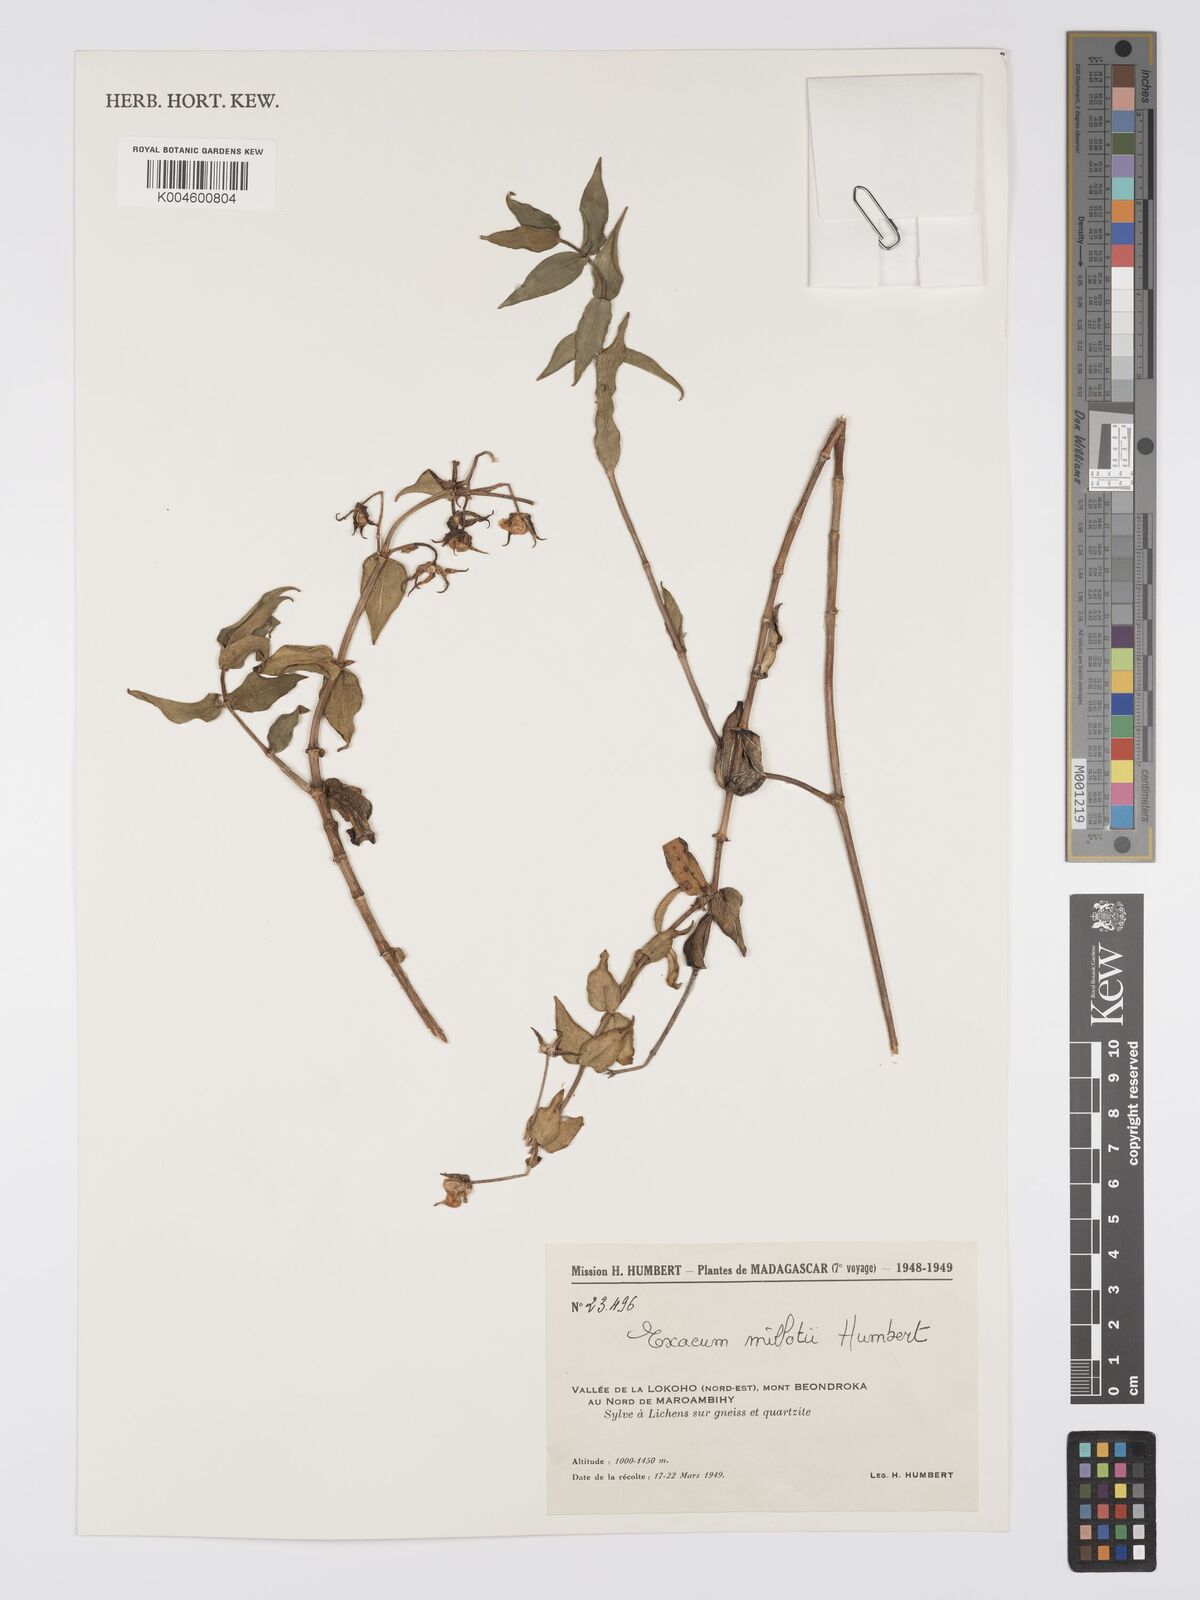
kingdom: Plantae
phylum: Tracheophyta
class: Magnoliopsida
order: Gentianales
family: Gentianaceae
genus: Exacum
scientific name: Exacum millotii
